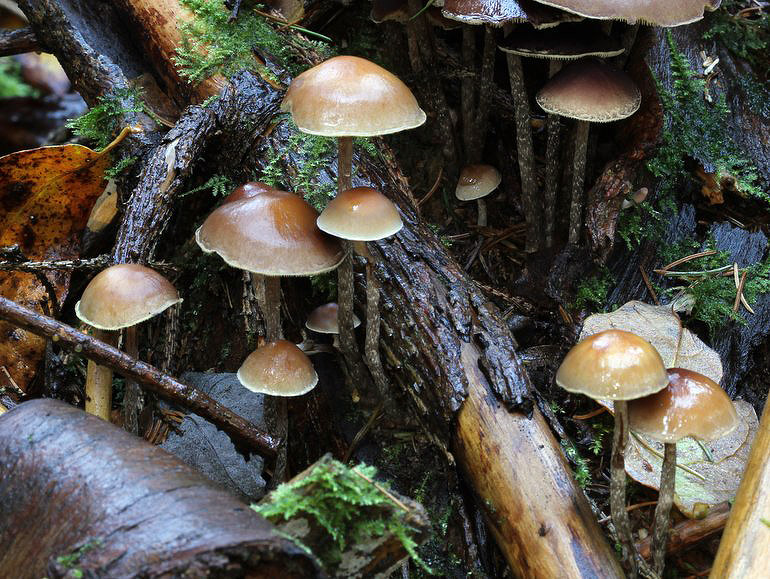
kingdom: Fungi
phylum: Basidiomycota
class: Agaricomycetes
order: Agaricales
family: Strophariaceae
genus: Hypholoma
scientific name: Hypholoma marginatum
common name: enlig svovlhat
